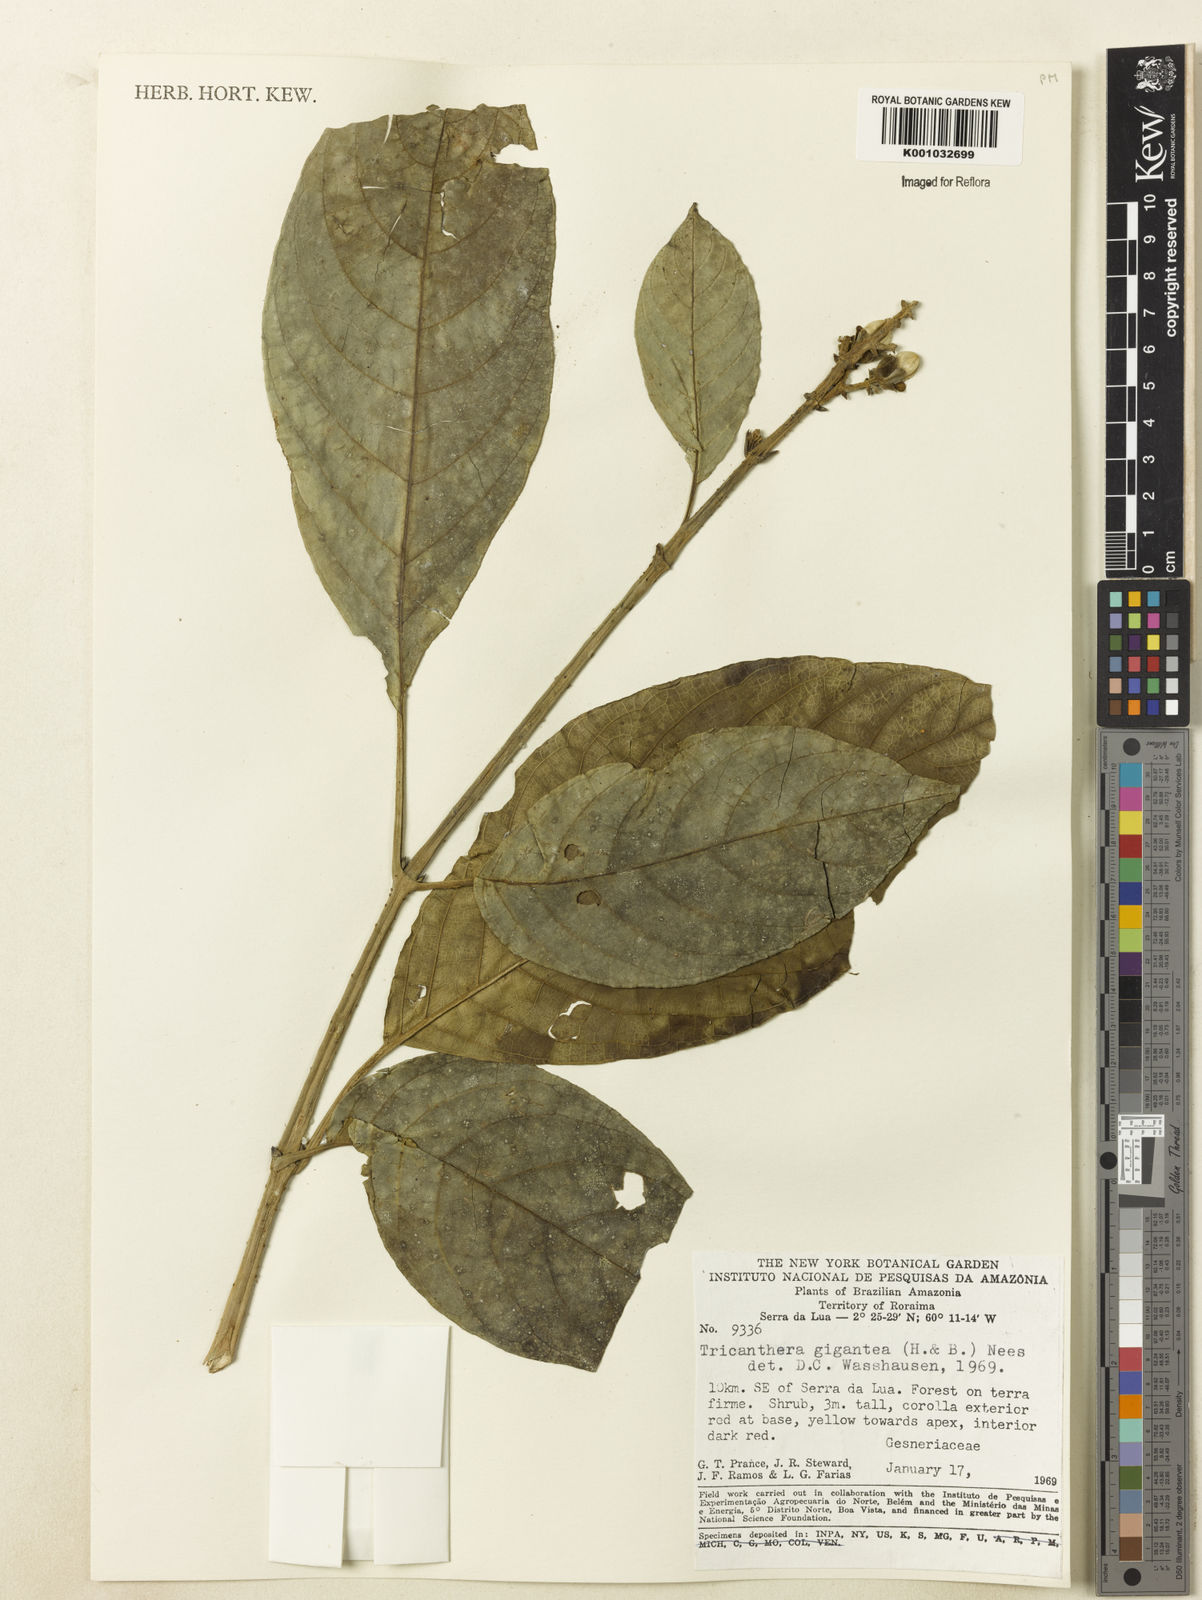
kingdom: Plantae
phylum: Tracheophyta
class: Magnoliopsida
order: Lamiales
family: Acanthaceae
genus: Trichanthera
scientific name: Trichanthera
